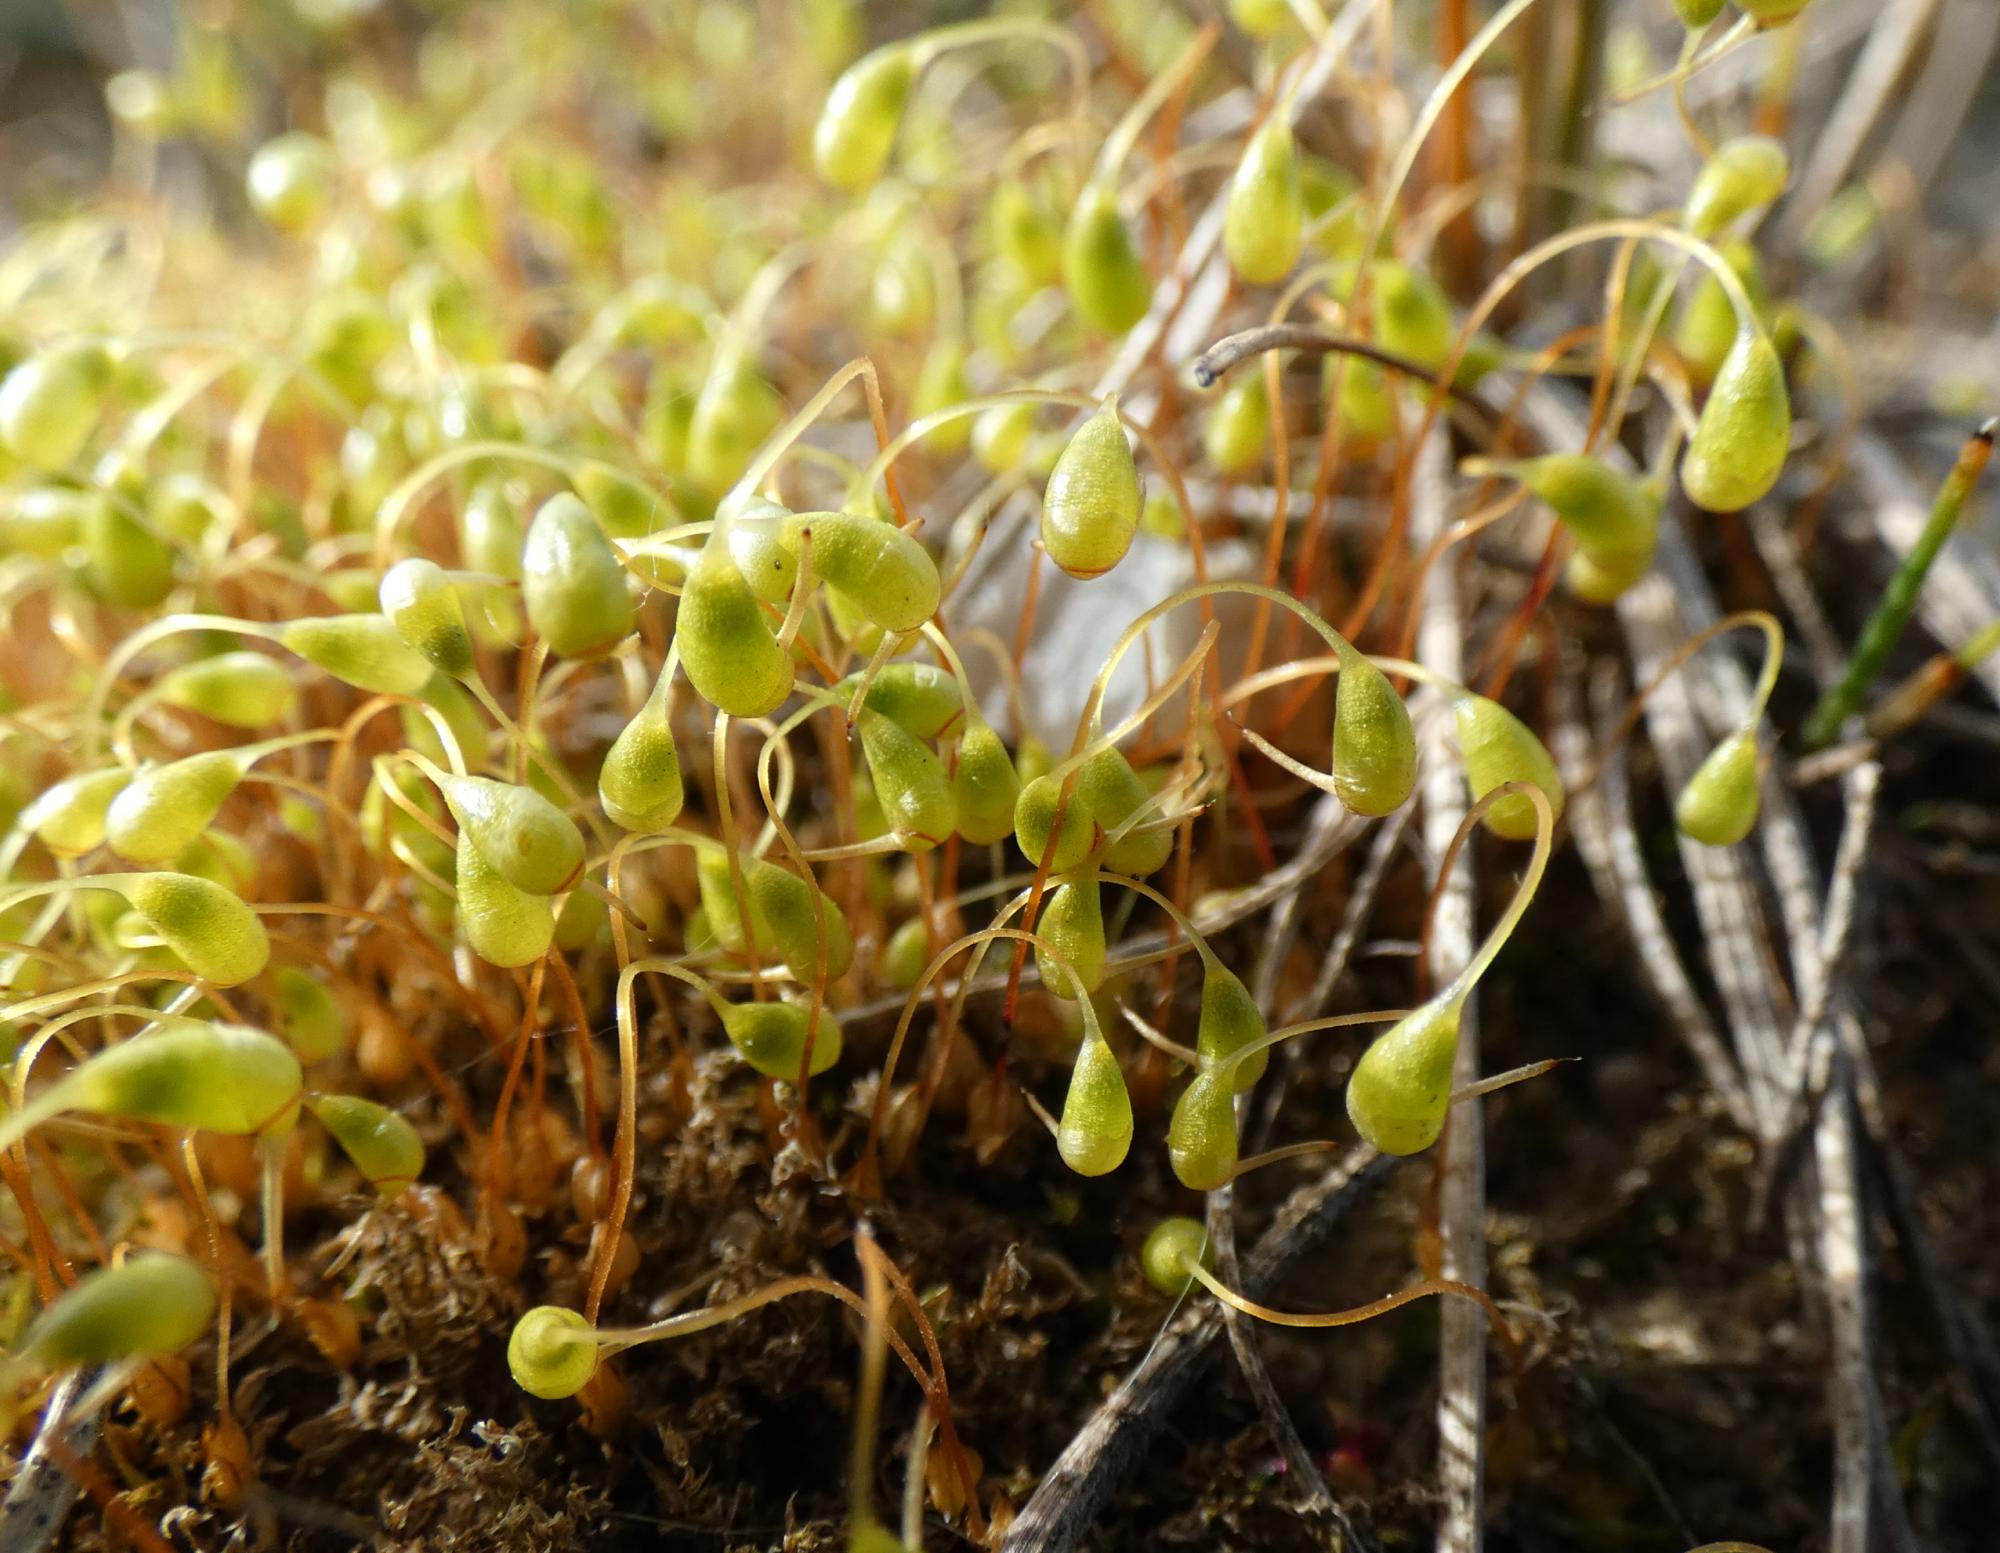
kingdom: Plantae
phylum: Bryophyta
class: Bryopsida
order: Funariales
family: Funariaceae
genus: Funaria
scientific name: Funaria hygrometrica
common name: Almindelig snobørste
